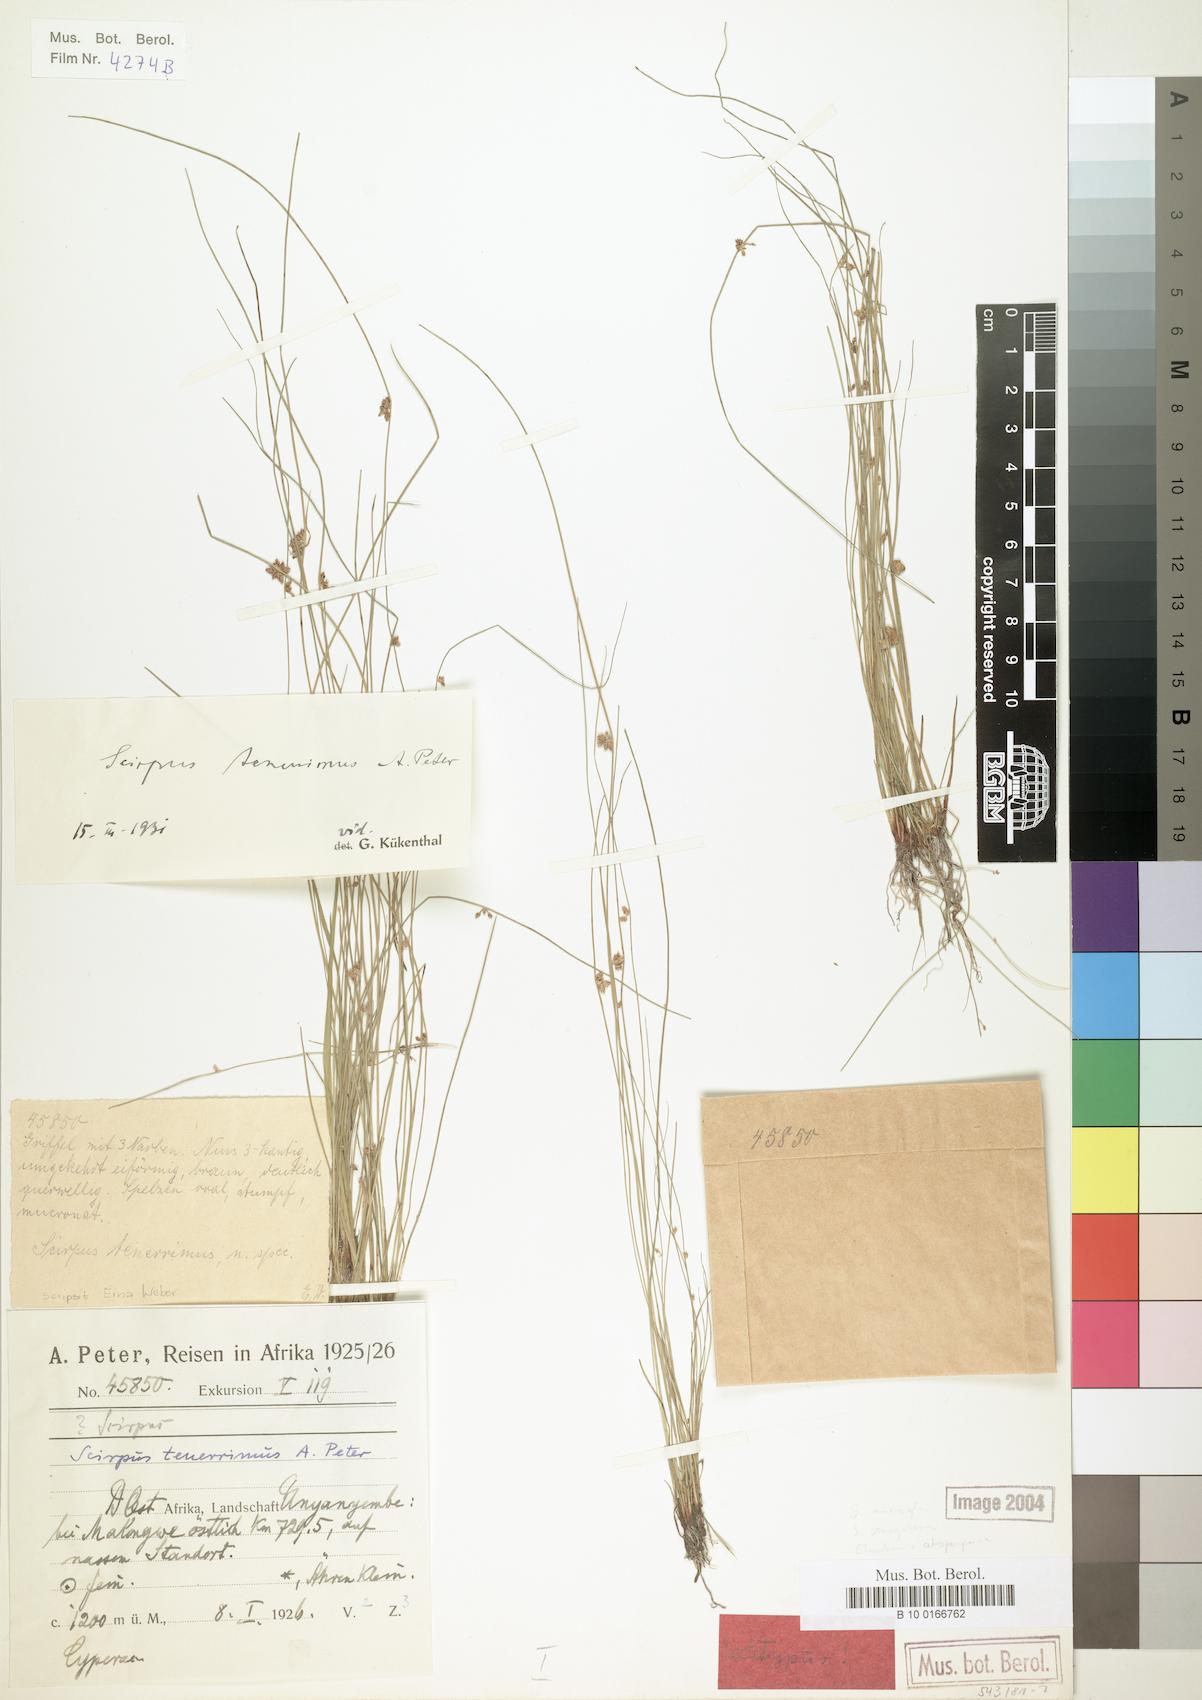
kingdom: Plantae
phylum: Tracheophyta
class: Liliopsida
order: Poales
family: Cyperaceae
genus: Schoenoplectiella
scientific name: Schoenoplectiella microglumis
